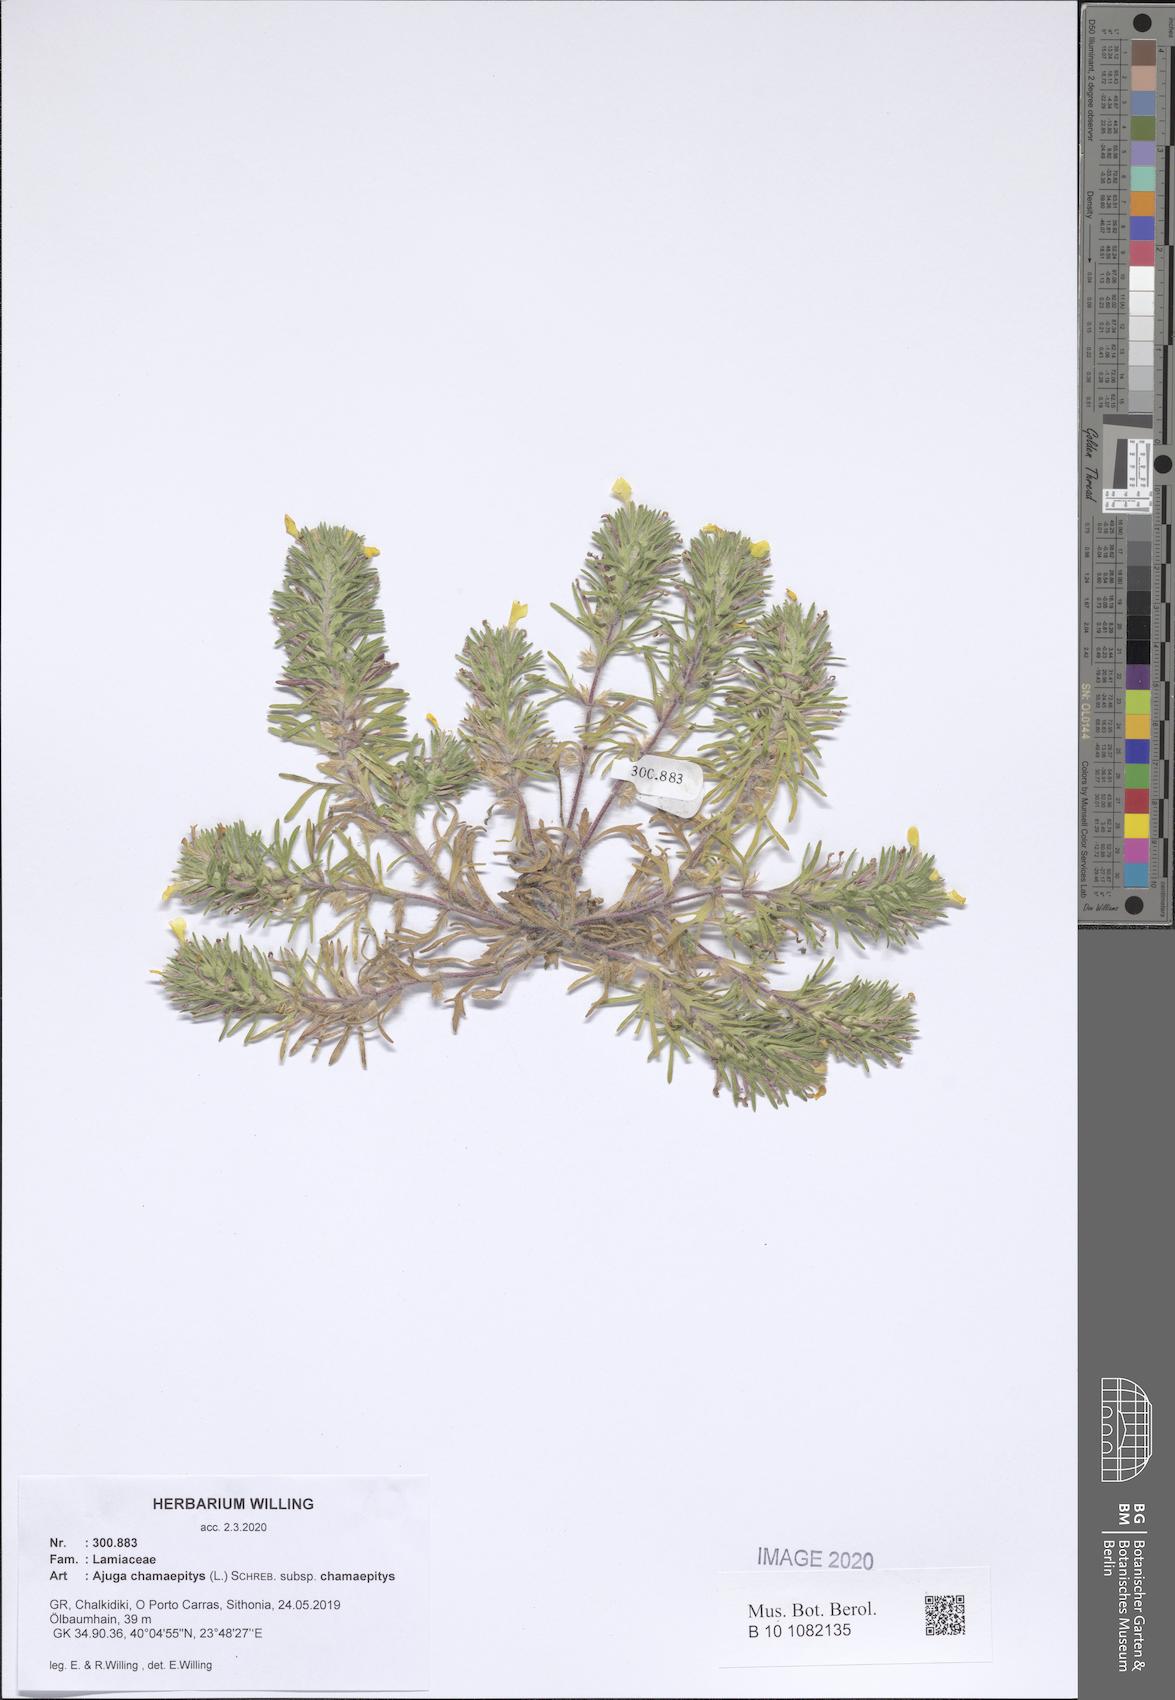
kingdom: Plantae
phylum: Tracheophyta
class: Magnoliopsida
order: Lamiales
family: Lamiaceae
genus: Ajuga
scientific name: Ajuga chamaepitys
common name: Ground-pine
